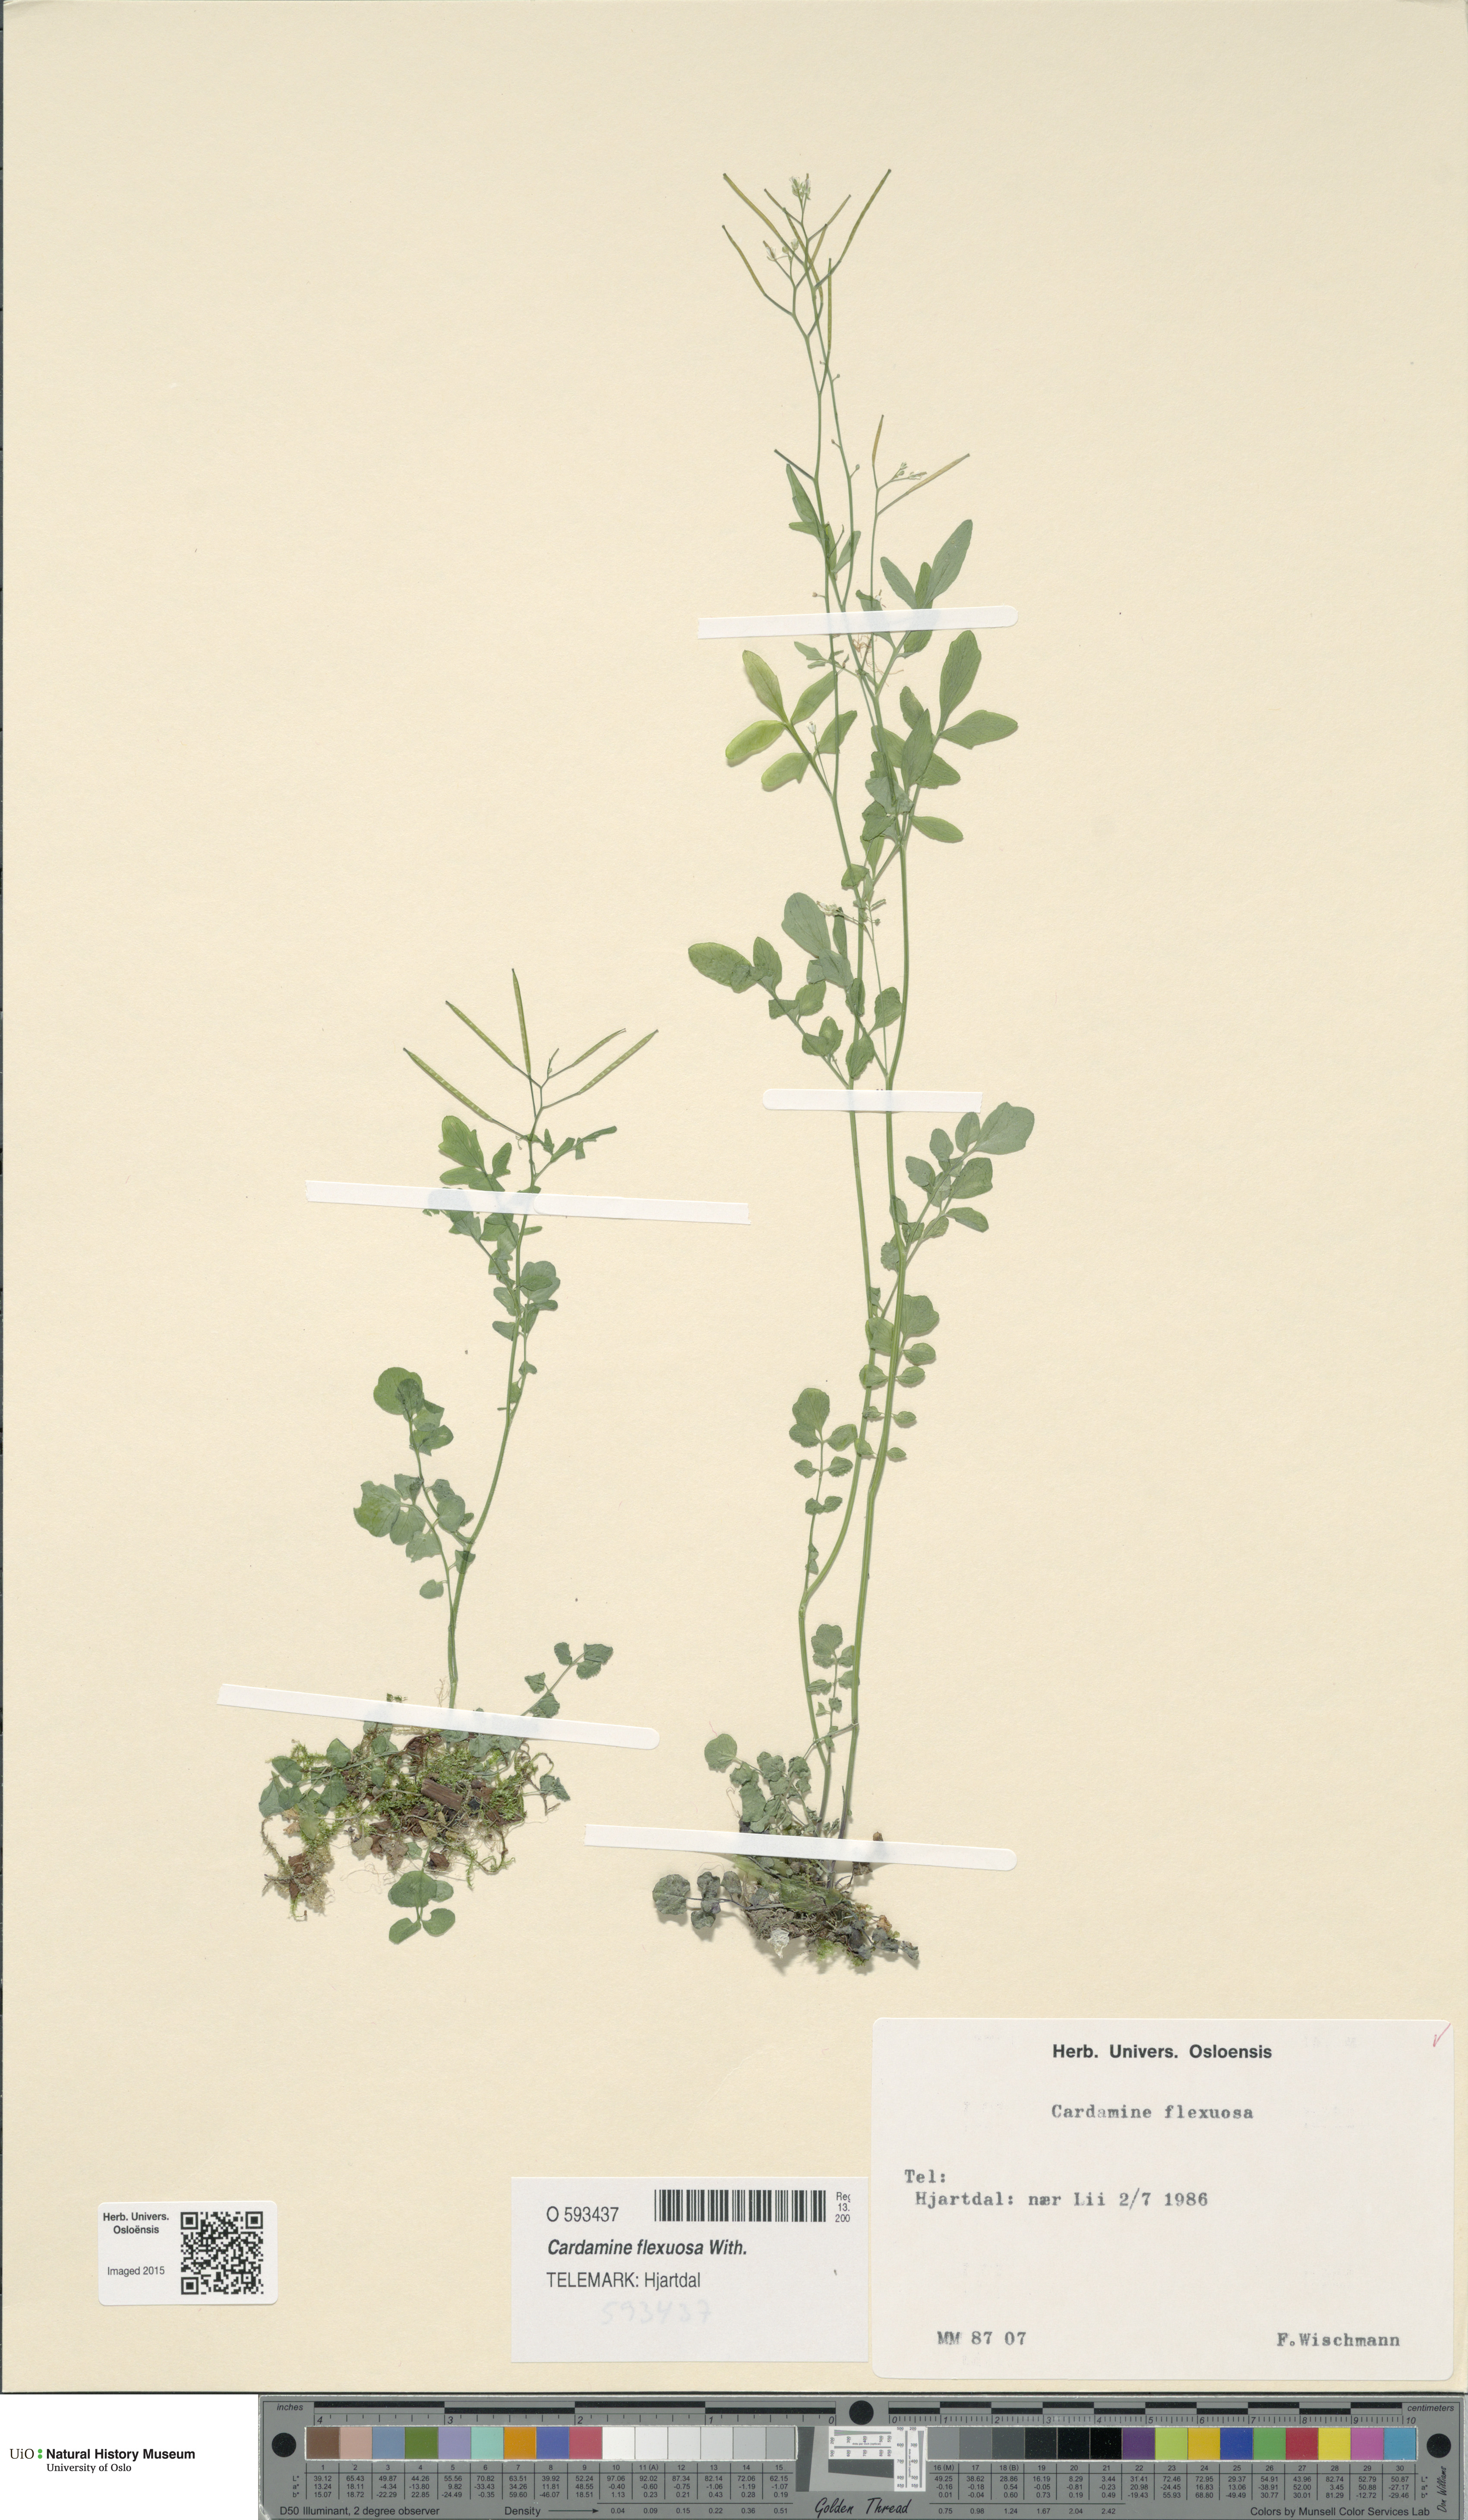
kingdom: Plantae
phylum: Tracheophyta
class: Magnoliopsida
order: Brassicales
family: Brassicaceae
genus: Cardamine
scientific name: Cardamine flexuosa
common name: Woodland bittercress
